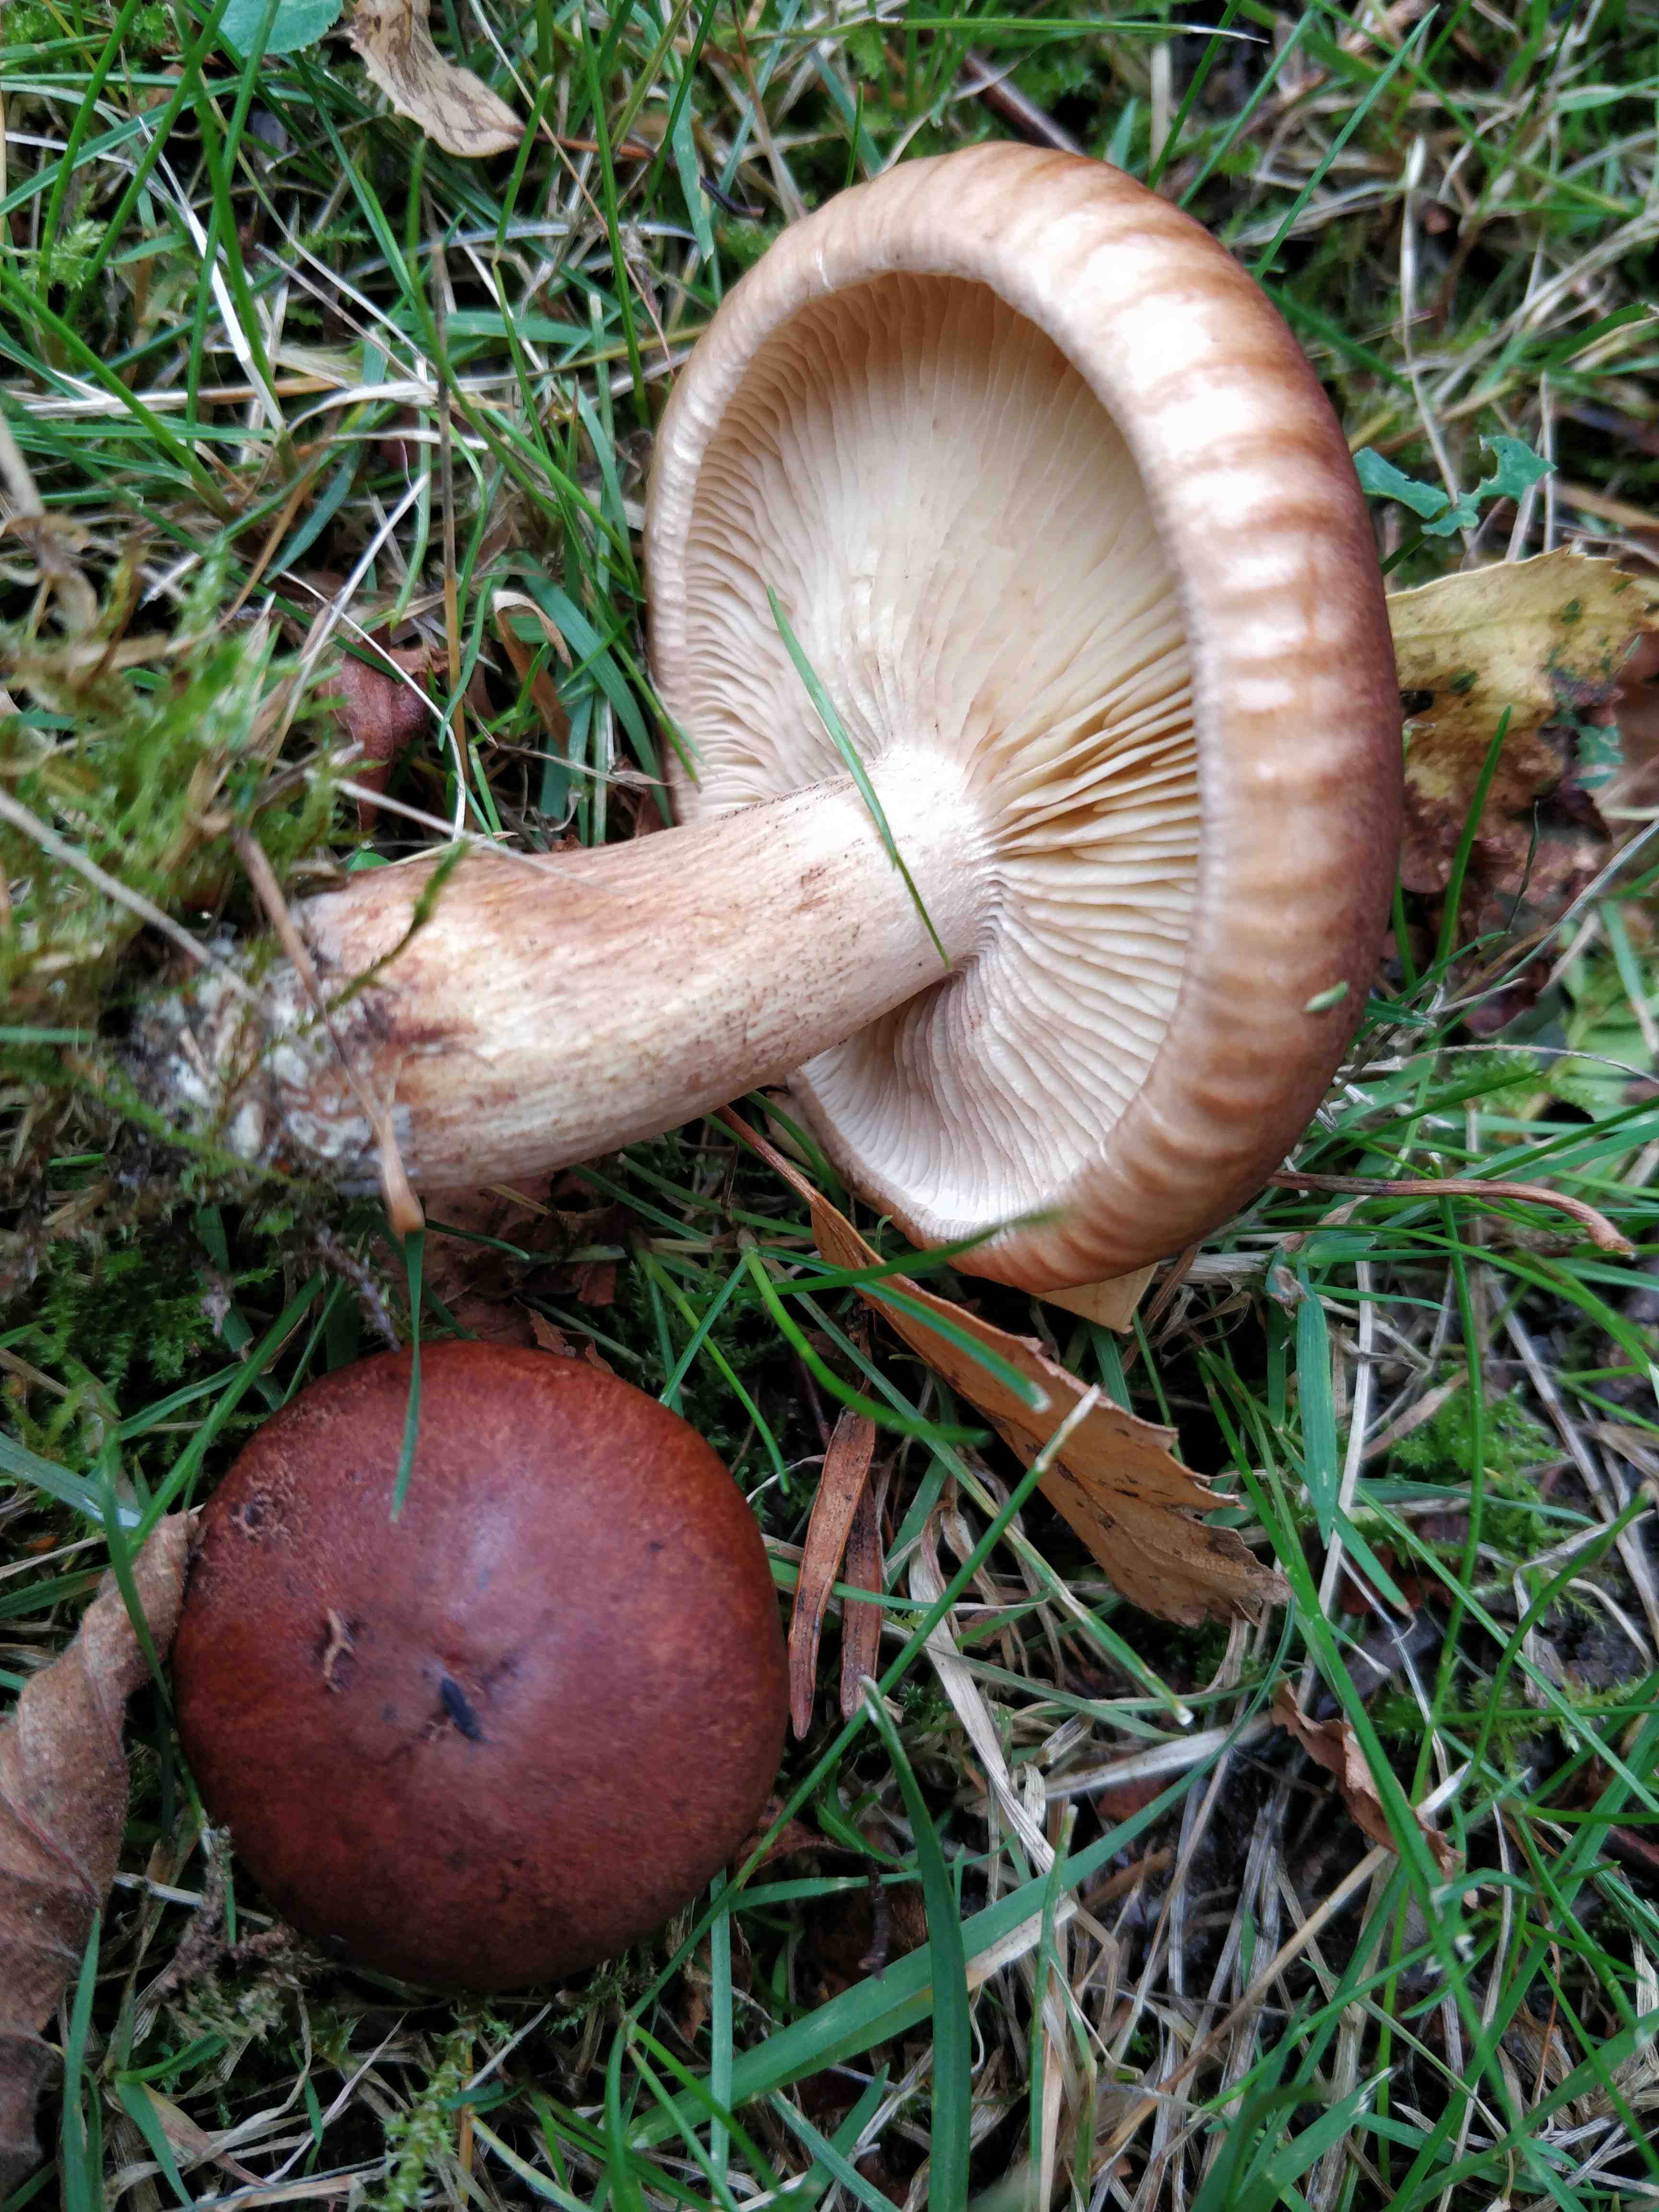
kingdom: Fungi
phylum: Basidiomycota
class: Agaricomycetes
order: Agaricales
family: Tricholomataceae
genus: Tricholoma
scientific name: Tricholoma
